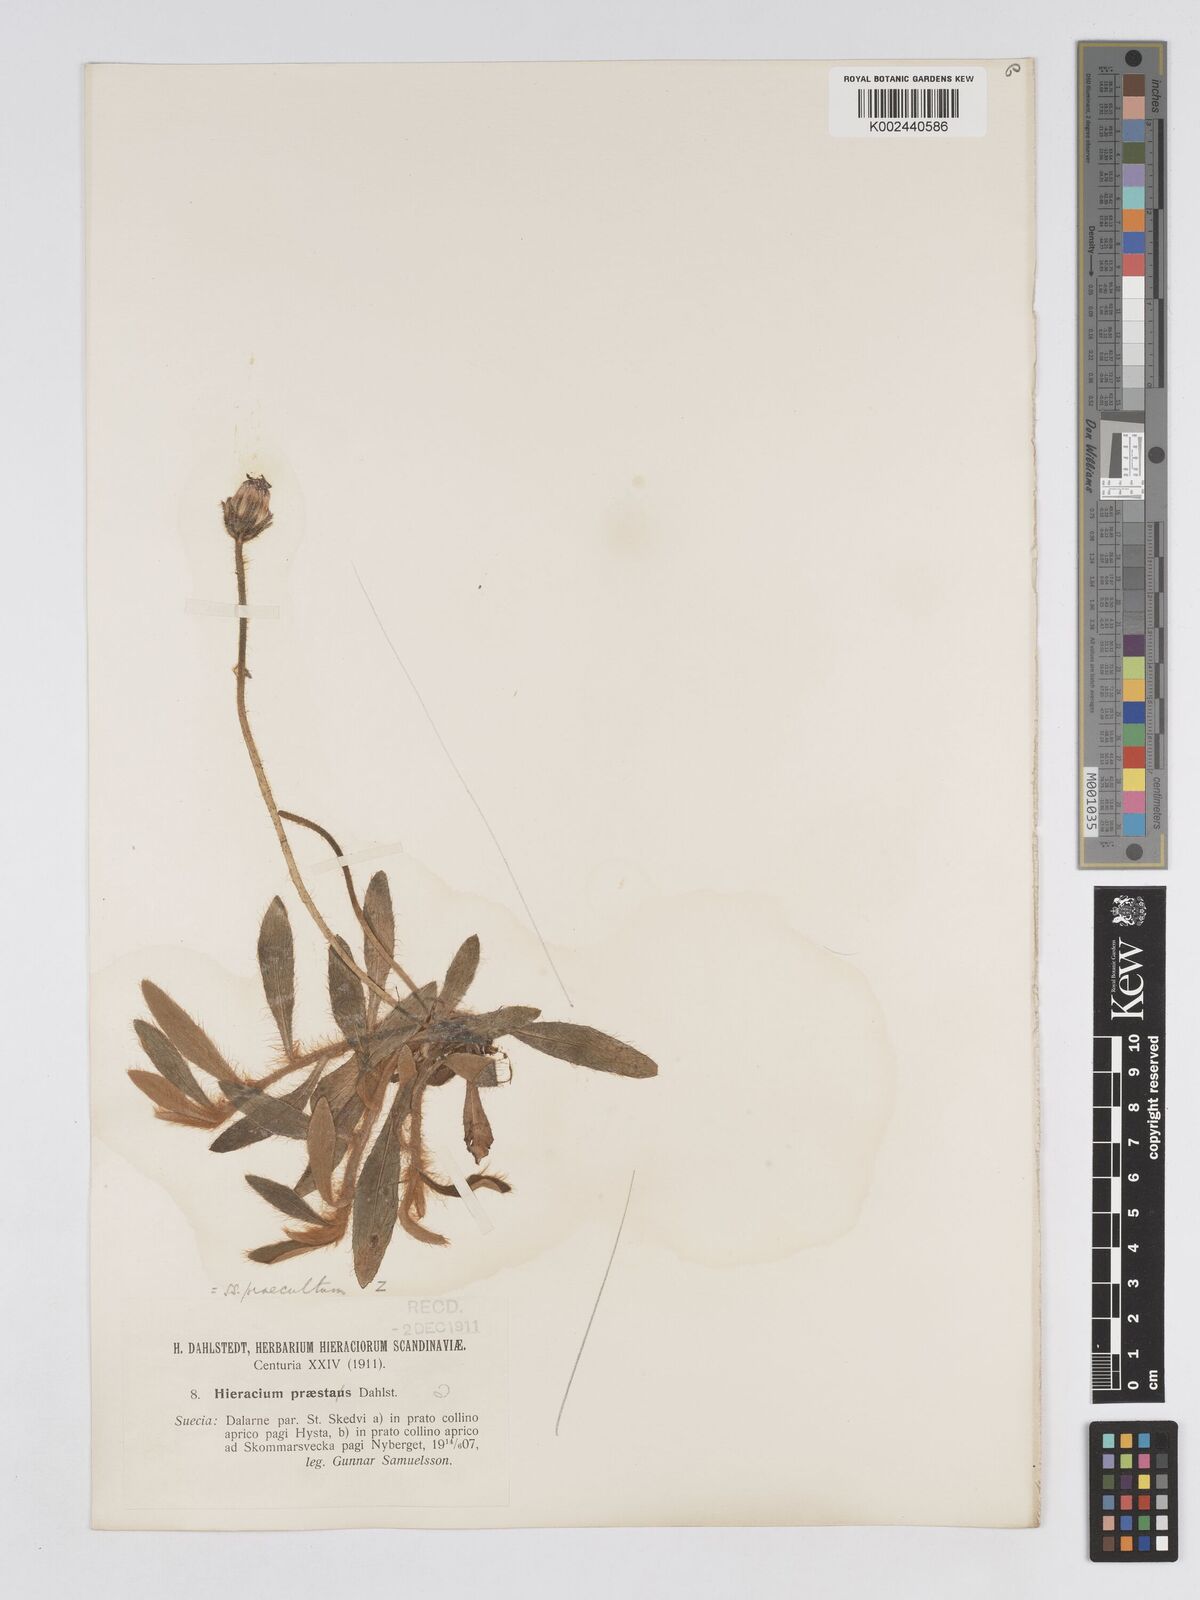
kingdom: Plantae
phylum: Tracheophyta
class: Magnoliopsida
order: Asterales
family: Asteraceae
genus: Pilosella
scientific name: Pilosella longisquama
